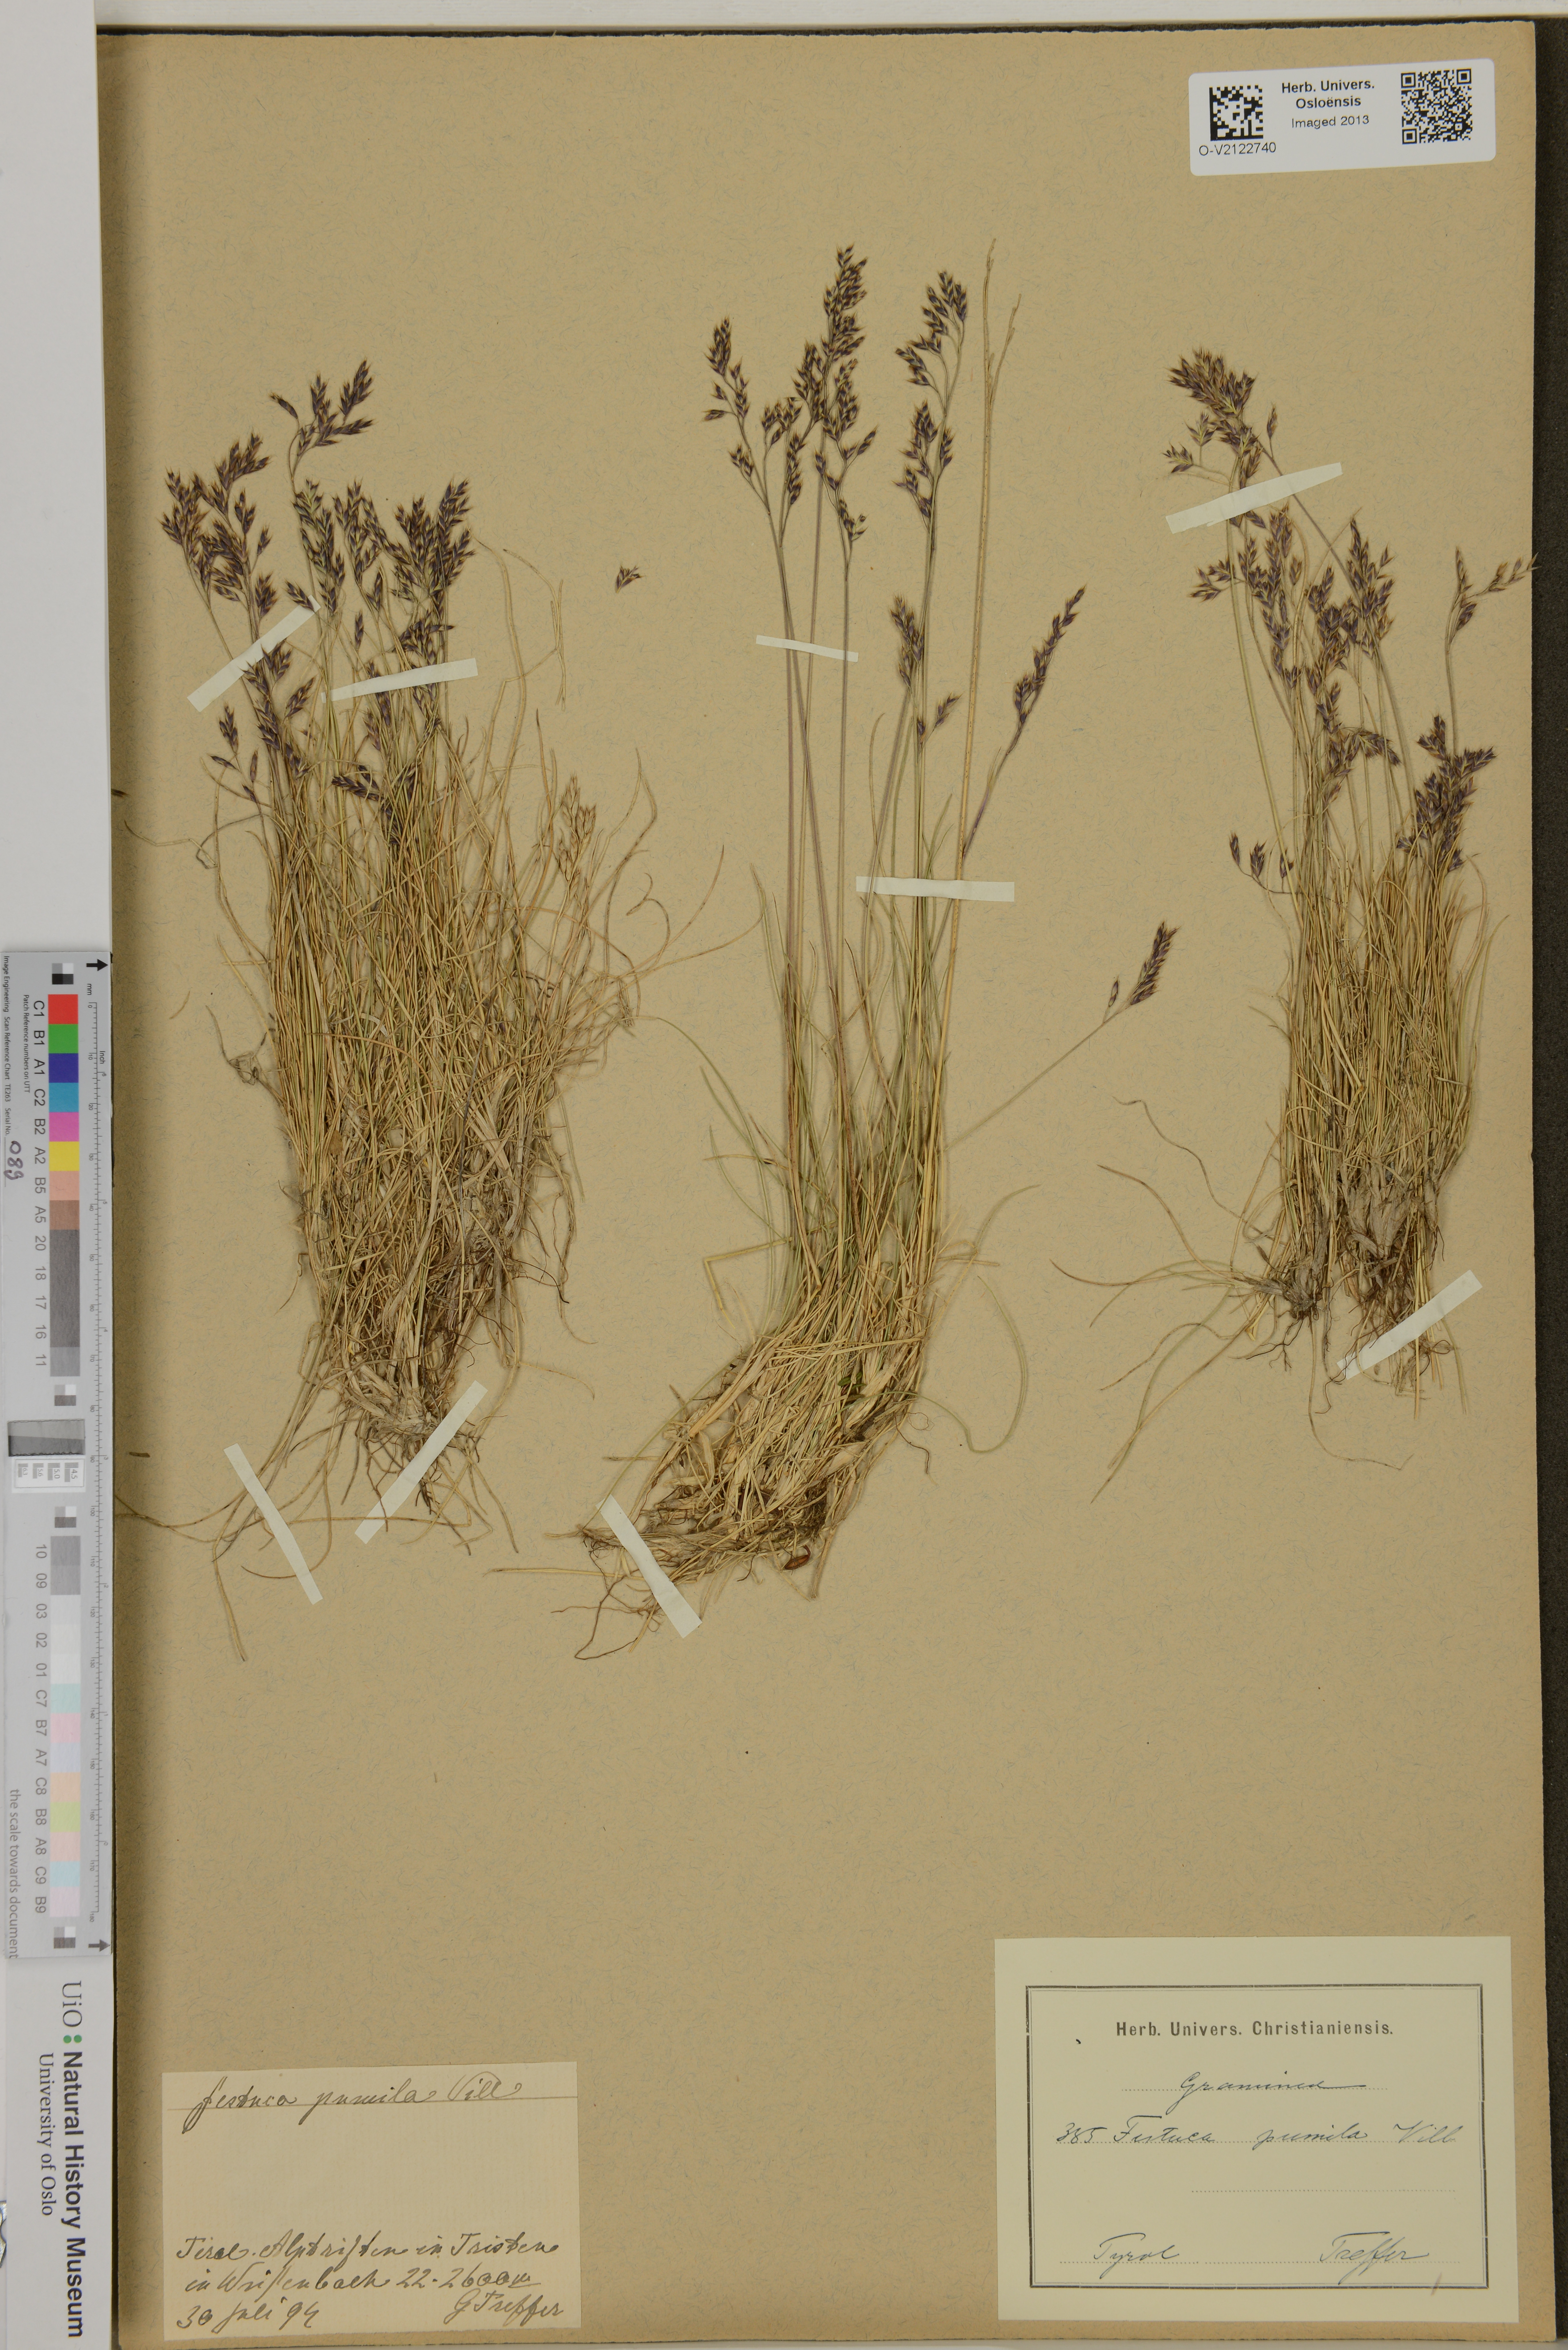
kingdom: Plantae
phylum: Tracheophyta
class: Liliopsida
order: Poales
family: Poaceae
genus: Festuca
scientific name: Festuca
